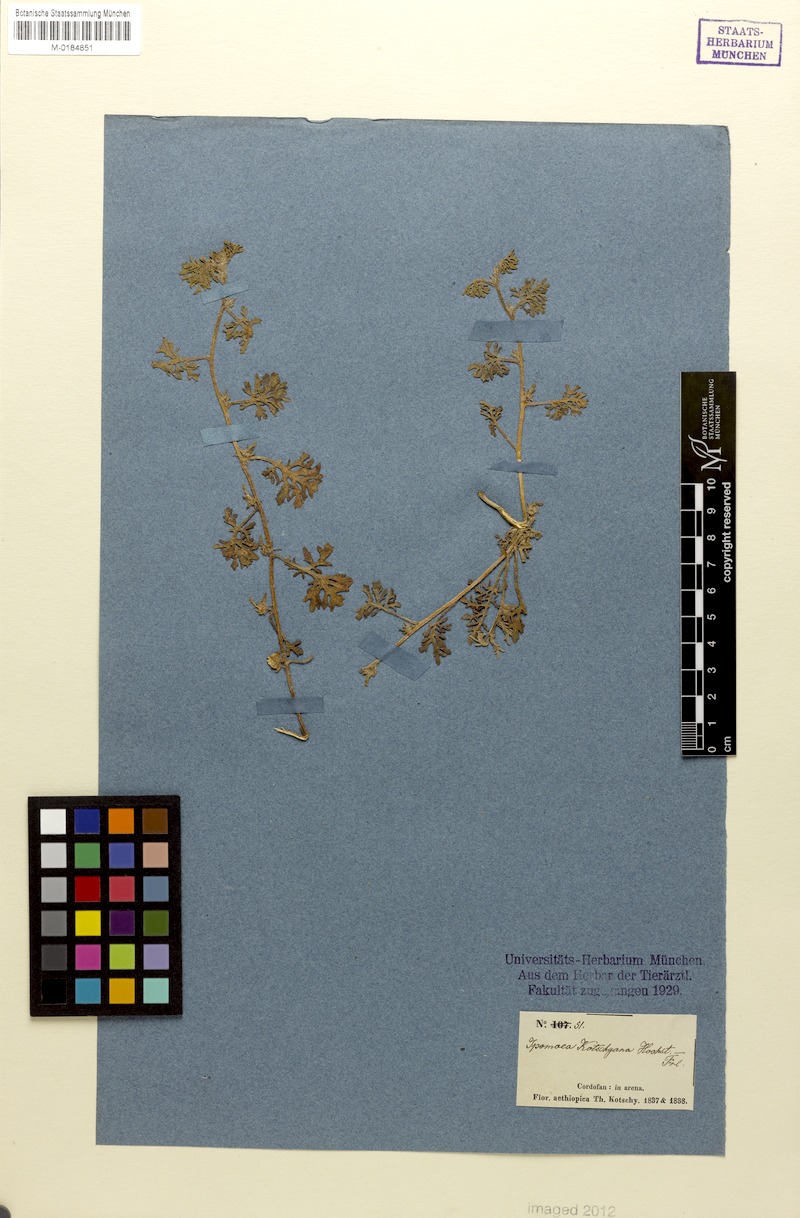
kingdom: Plantae
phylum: Tracheophyta
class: Magnoliopsida
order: Solanales
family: Convolvulaceae
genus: Ipomoea
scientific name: Ipomoea kotschyana
